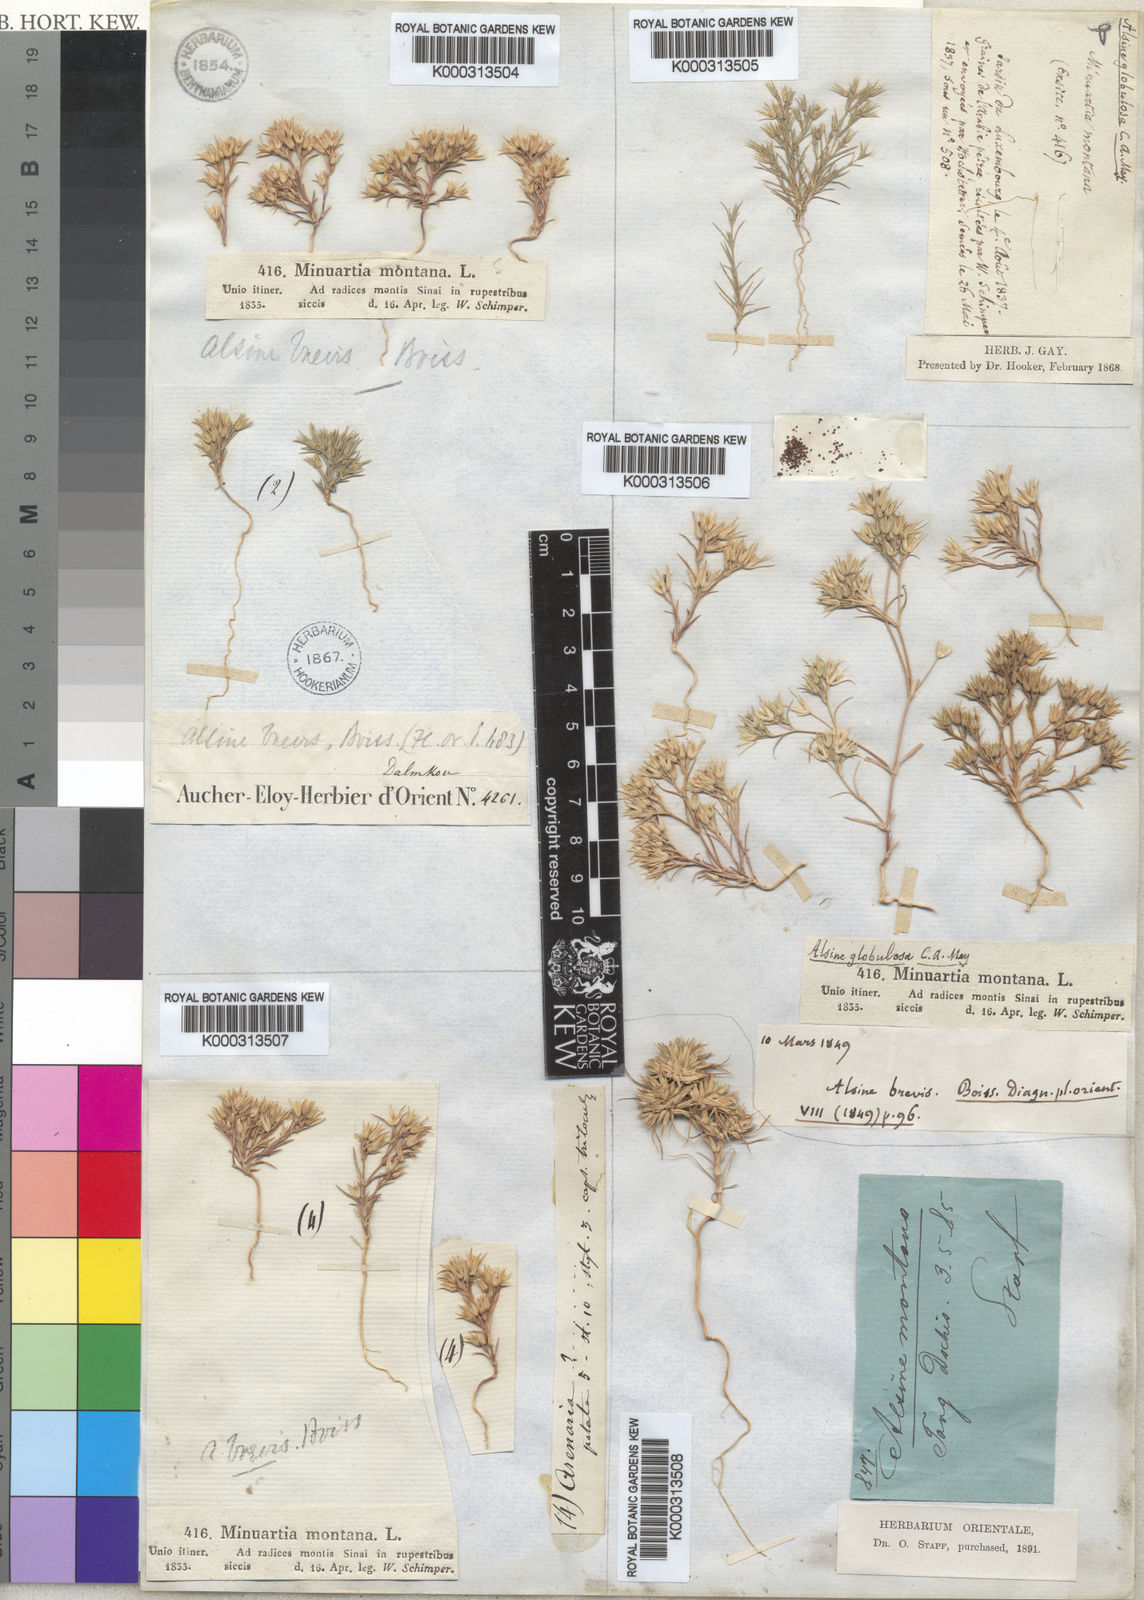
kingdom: Plantae
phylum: Tracheophyta
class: Magnoliopsida
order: Caryophyllales
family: Caryophyllaceae
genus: Minuartia
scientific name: Minuartia montana
